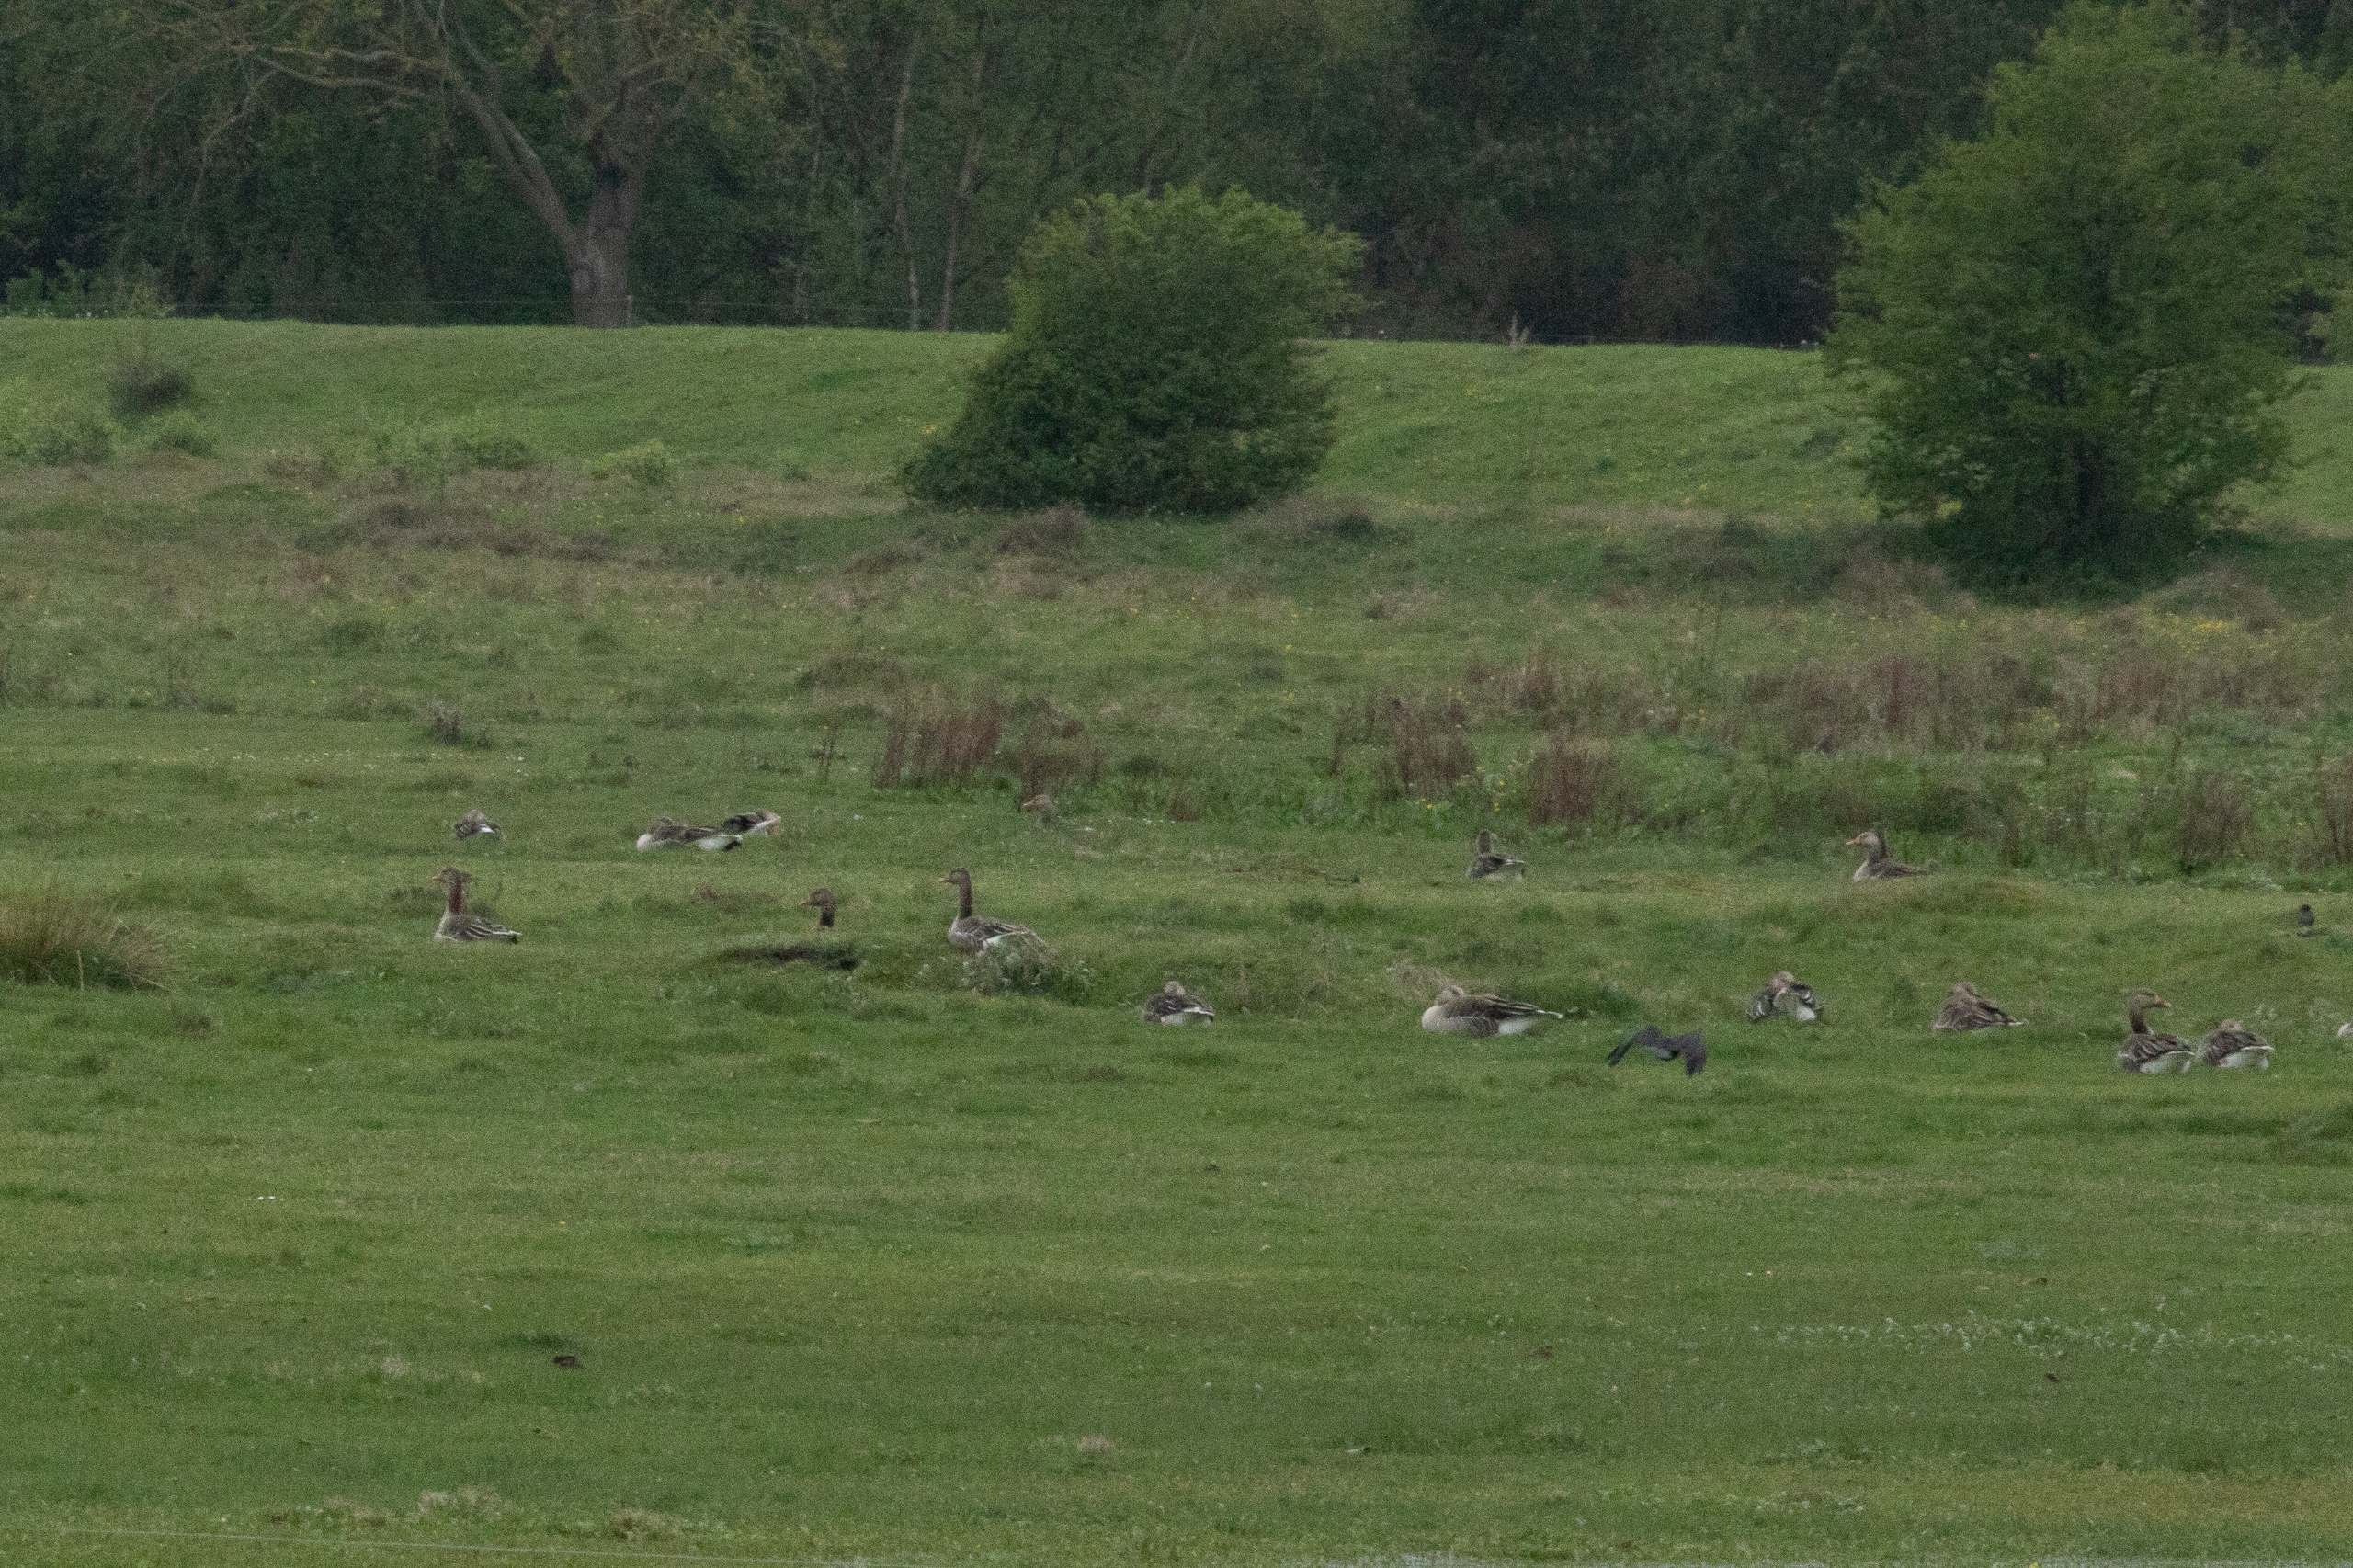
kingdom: Animalia
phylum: Chordata
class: Aves
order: Anseriformes
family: Anatidae
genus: Anser
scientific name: Anser anser
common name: Grågås
